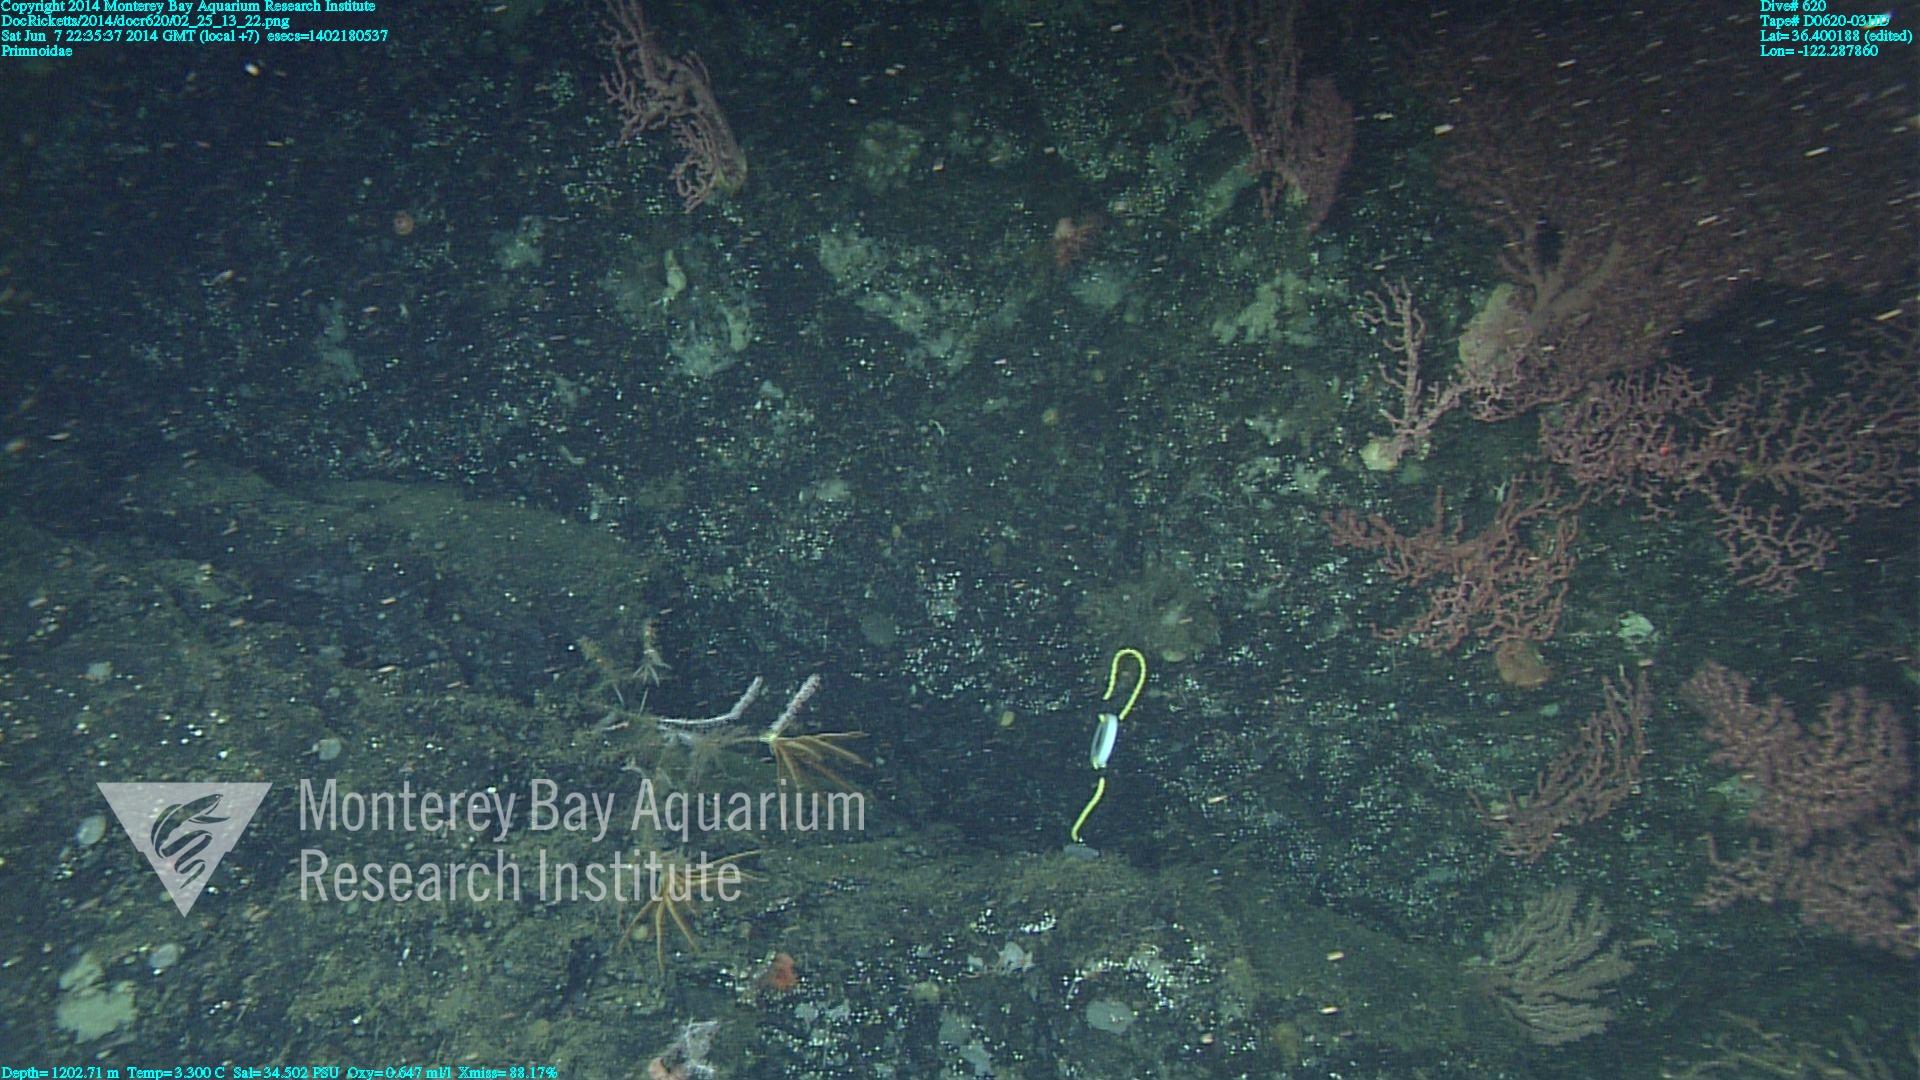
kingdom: Animalia
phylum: Cnidaria
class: Anthozoa
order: Scleralcyonacea
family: Primnoidae
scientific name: Primnoidae
